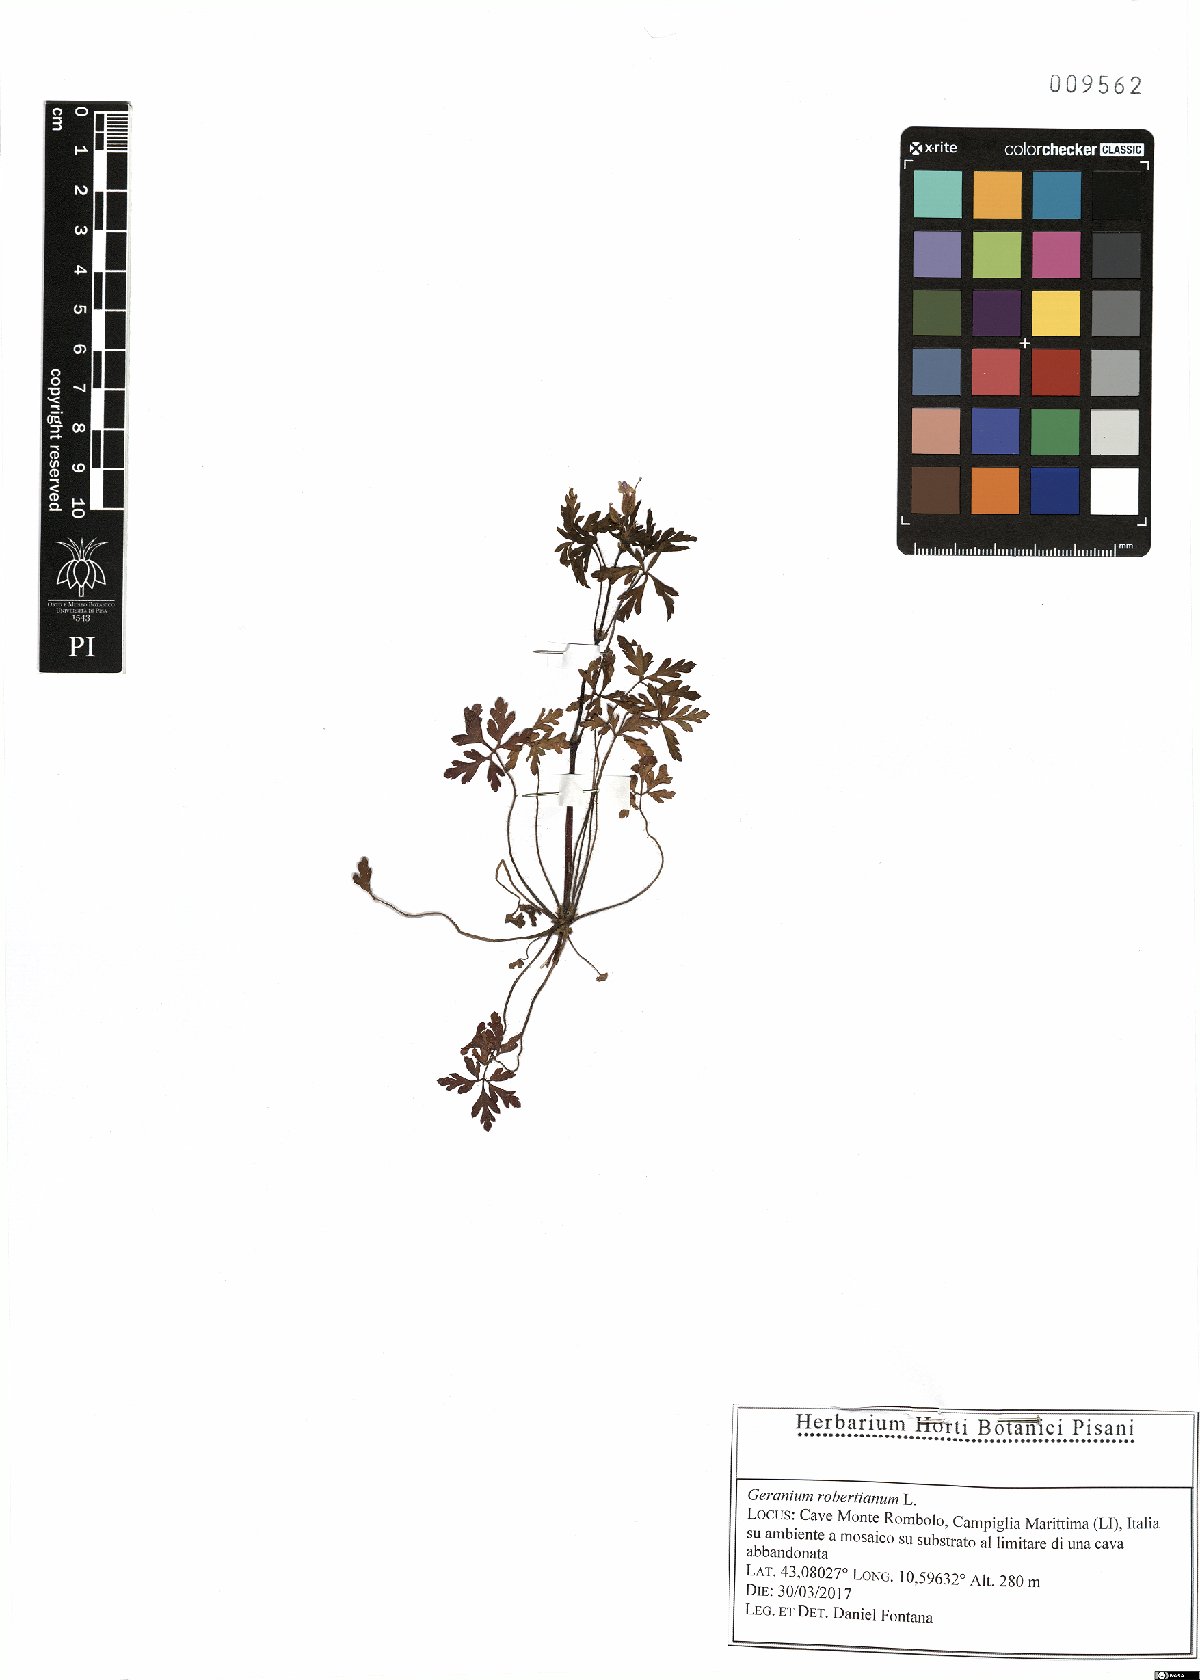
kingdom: Plantae
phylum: Tracheophyta
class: Magnoliopsida
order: Geraniales
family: Geraniaceae
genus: Geranium
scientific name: Geranium robertianum
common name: Herb-robert
